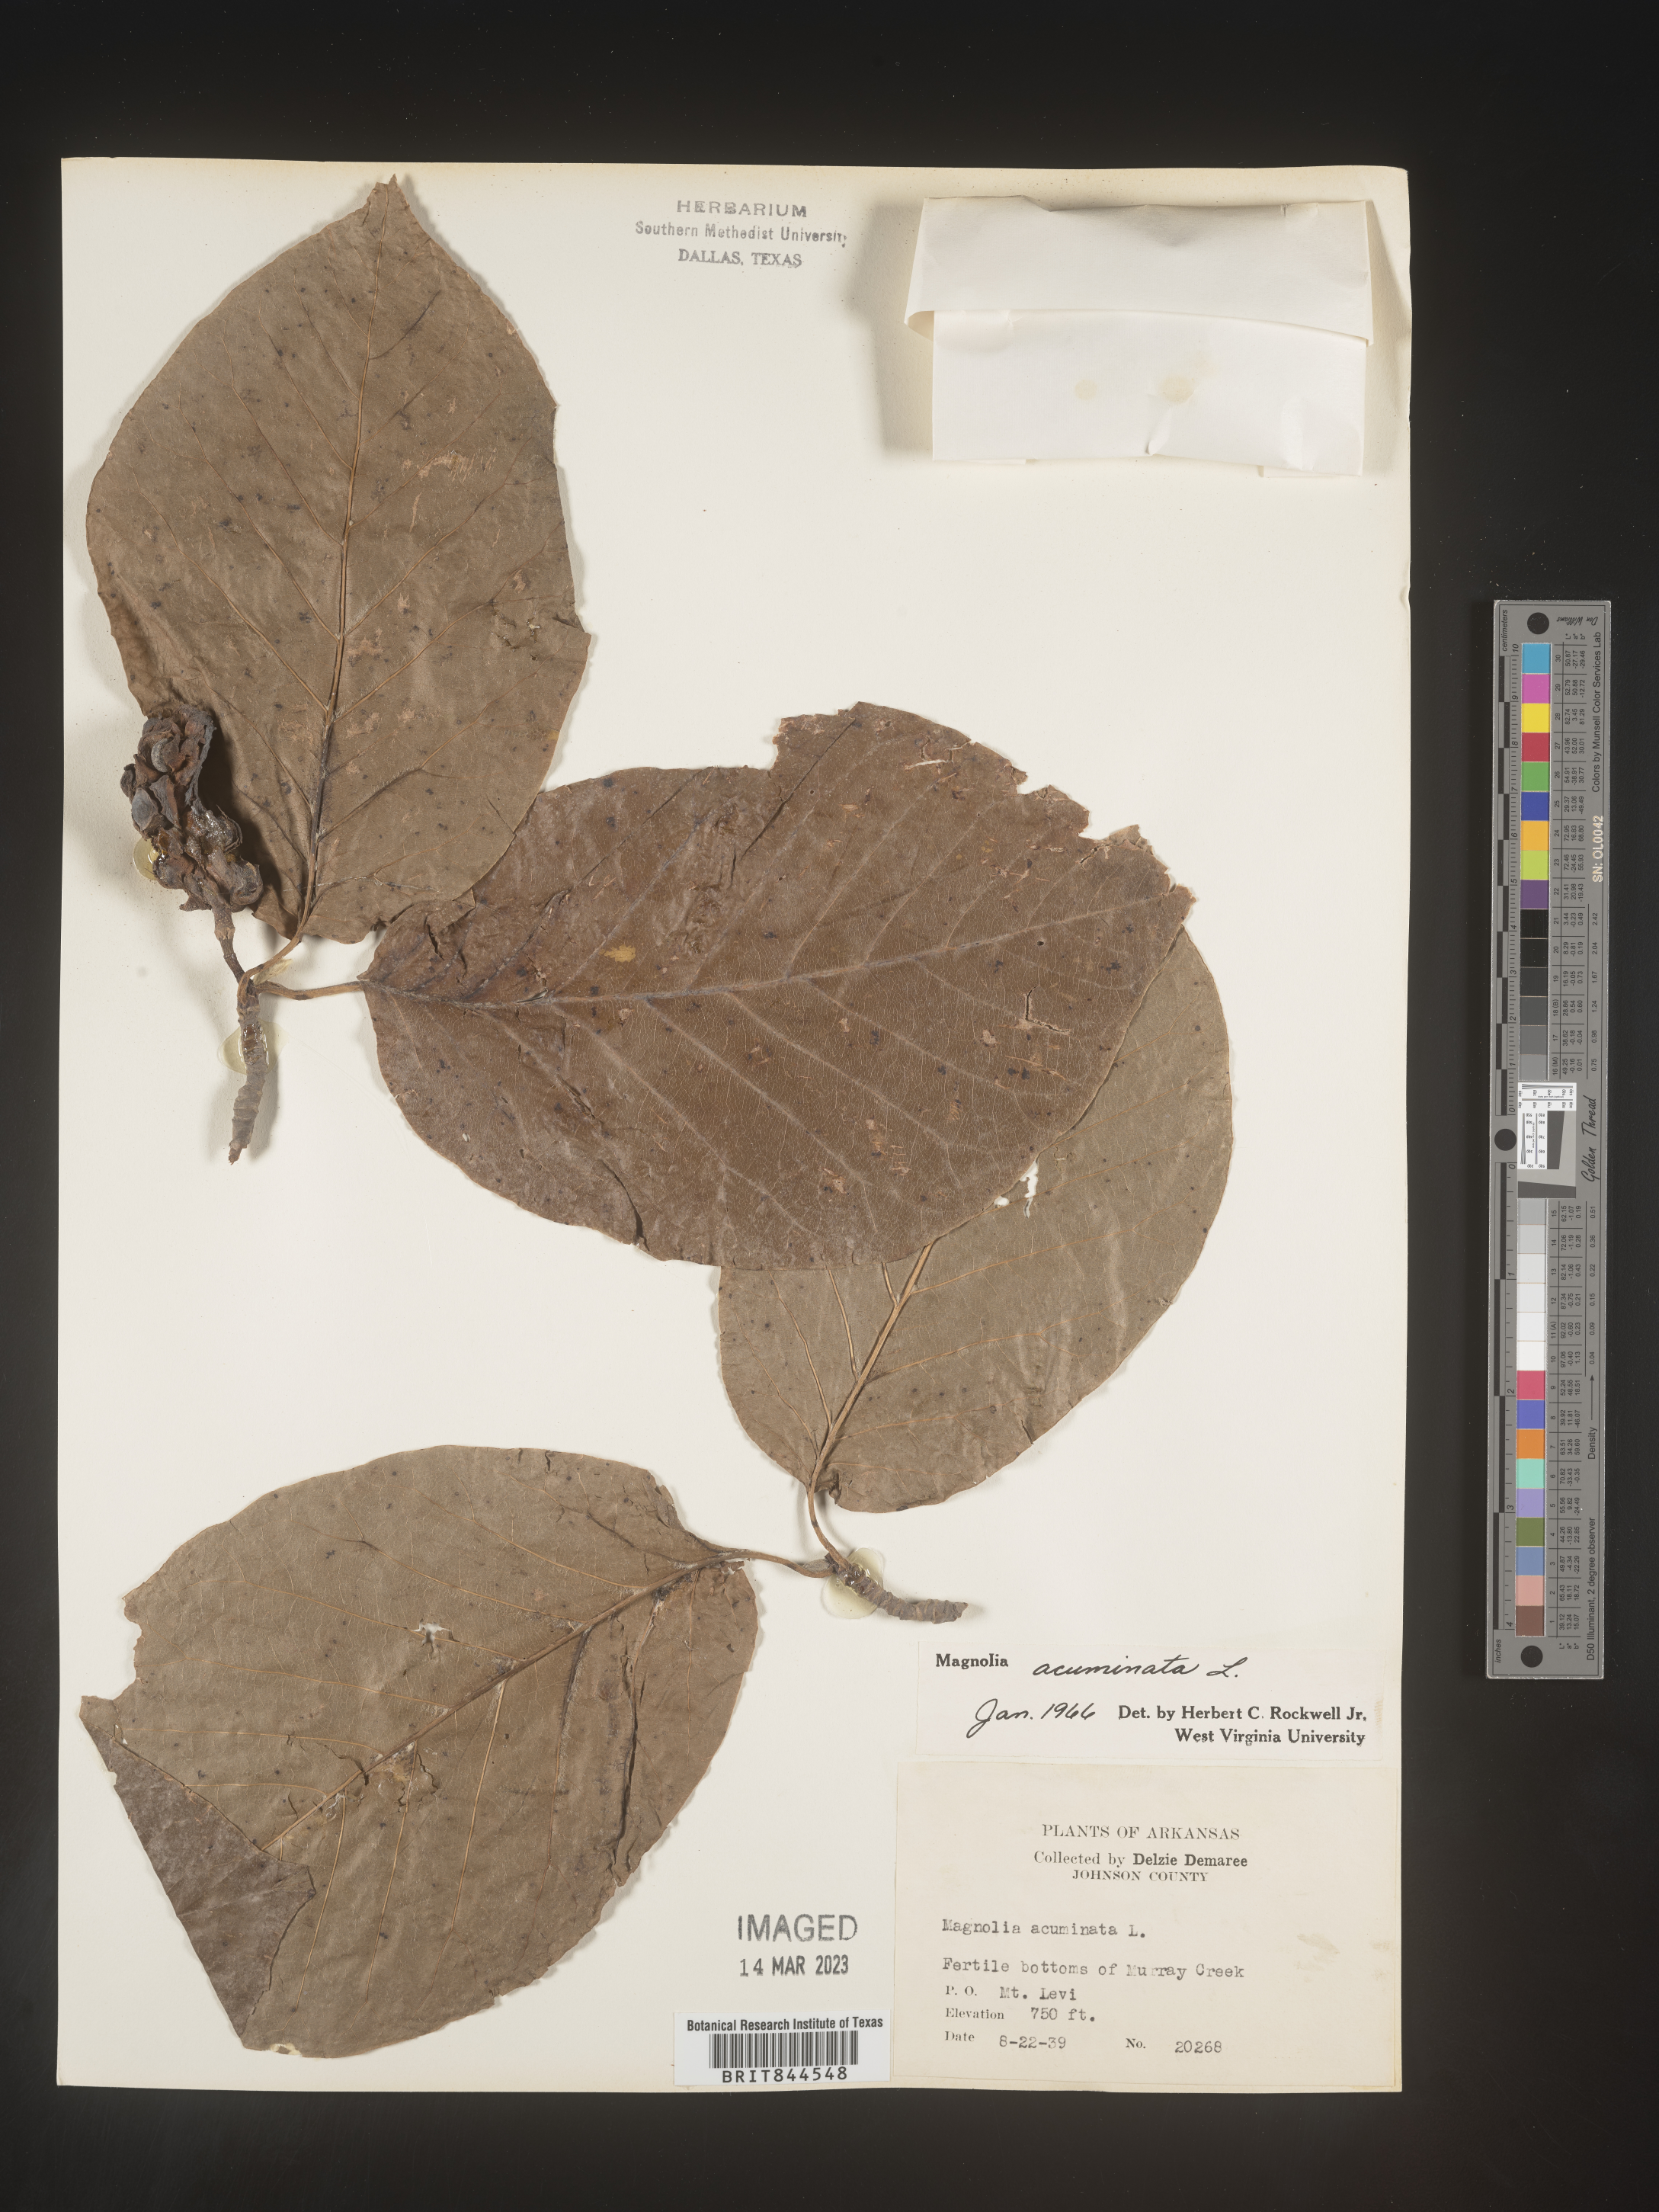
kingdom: Plantae
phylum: Tracheophyta
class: Magnoliopsida
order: Magnoliales
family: Magnoliaceae
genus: Magnolia
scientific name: Magnolia acuminata
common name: Cucumber magnolia
